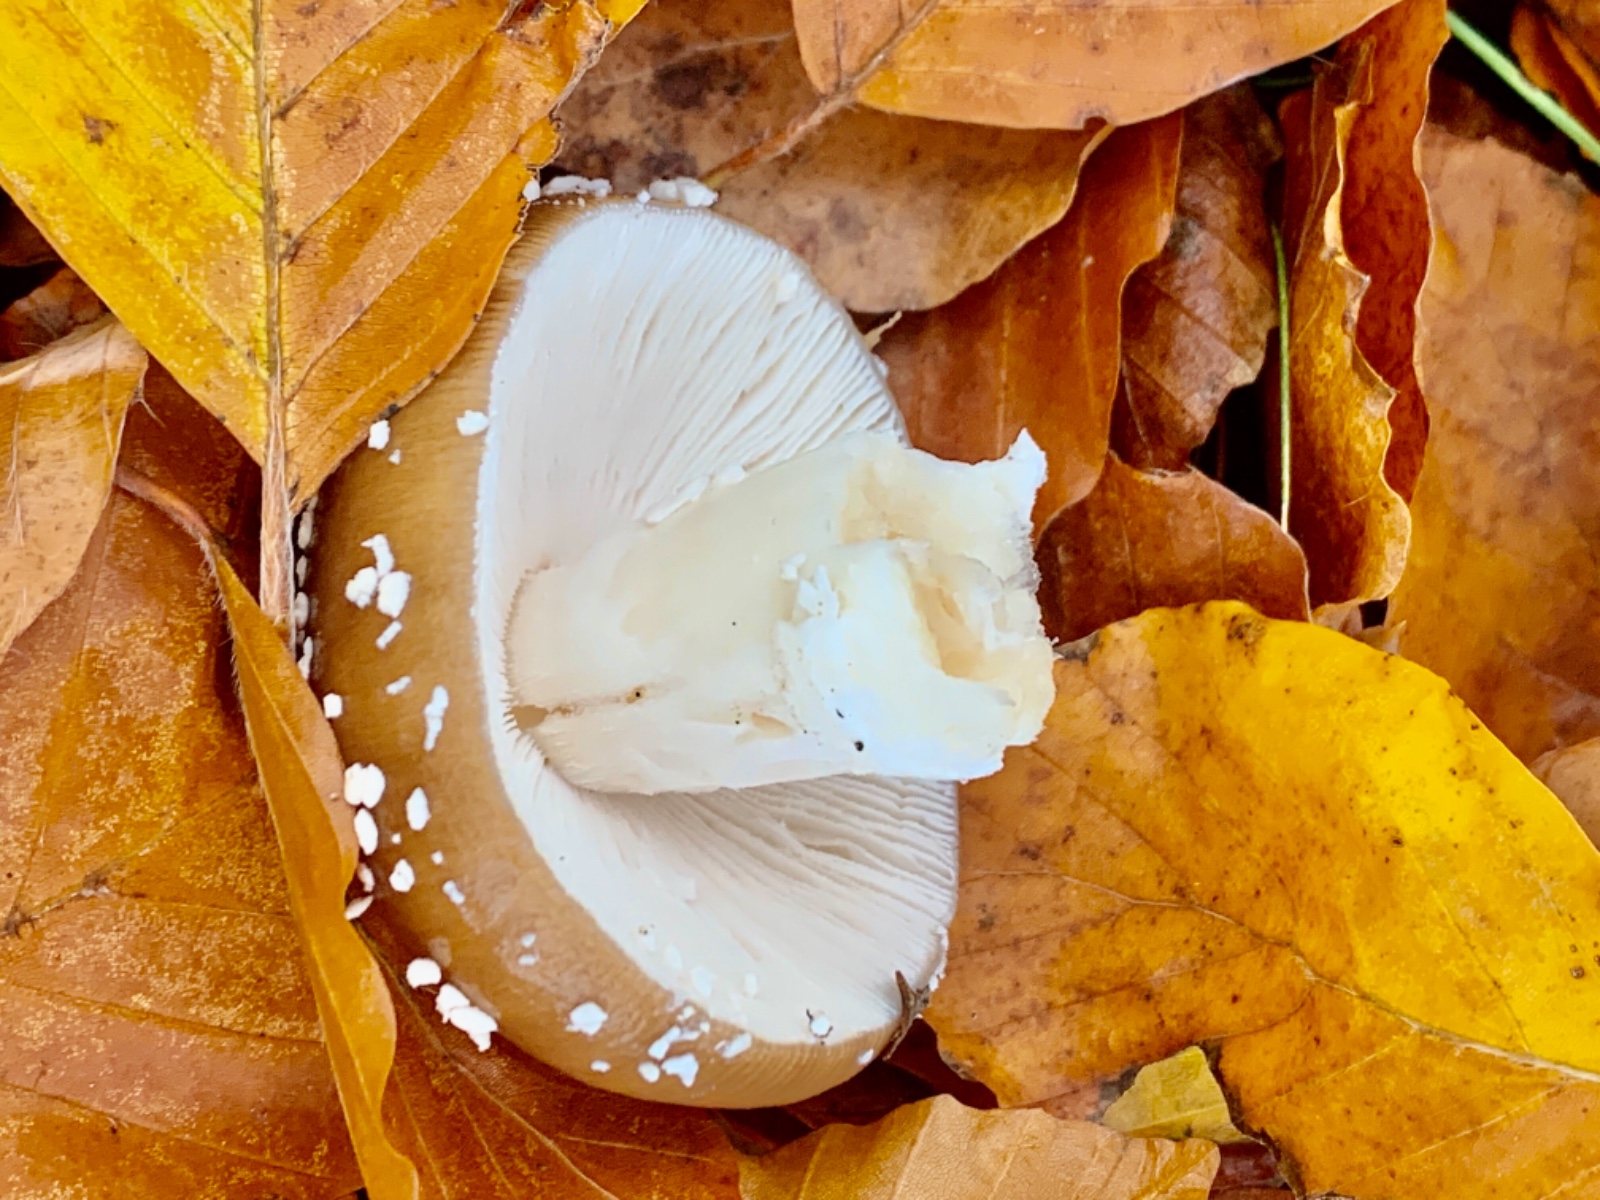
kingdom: Fungi
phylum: Basidiomycota
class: Agaricomycetes
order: Agaricales
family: Amanitaceae
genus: Amanita
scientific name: Amanita pantherina
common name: panter-fluesvamp
